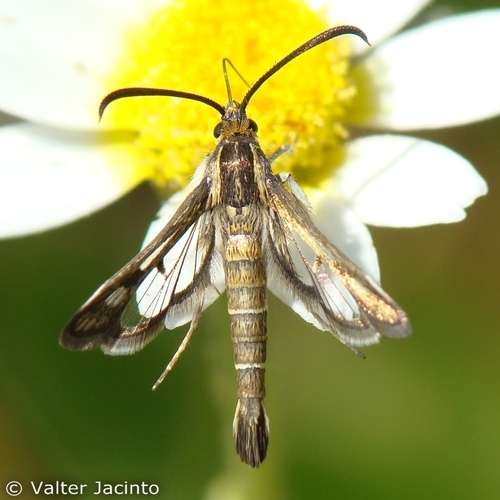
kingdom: Animalia
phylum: Arthropoda
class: Insecta
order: Lepidoptera
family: Sesiidae
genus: Pyropteron
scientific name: Pyropteron meriaeformis
